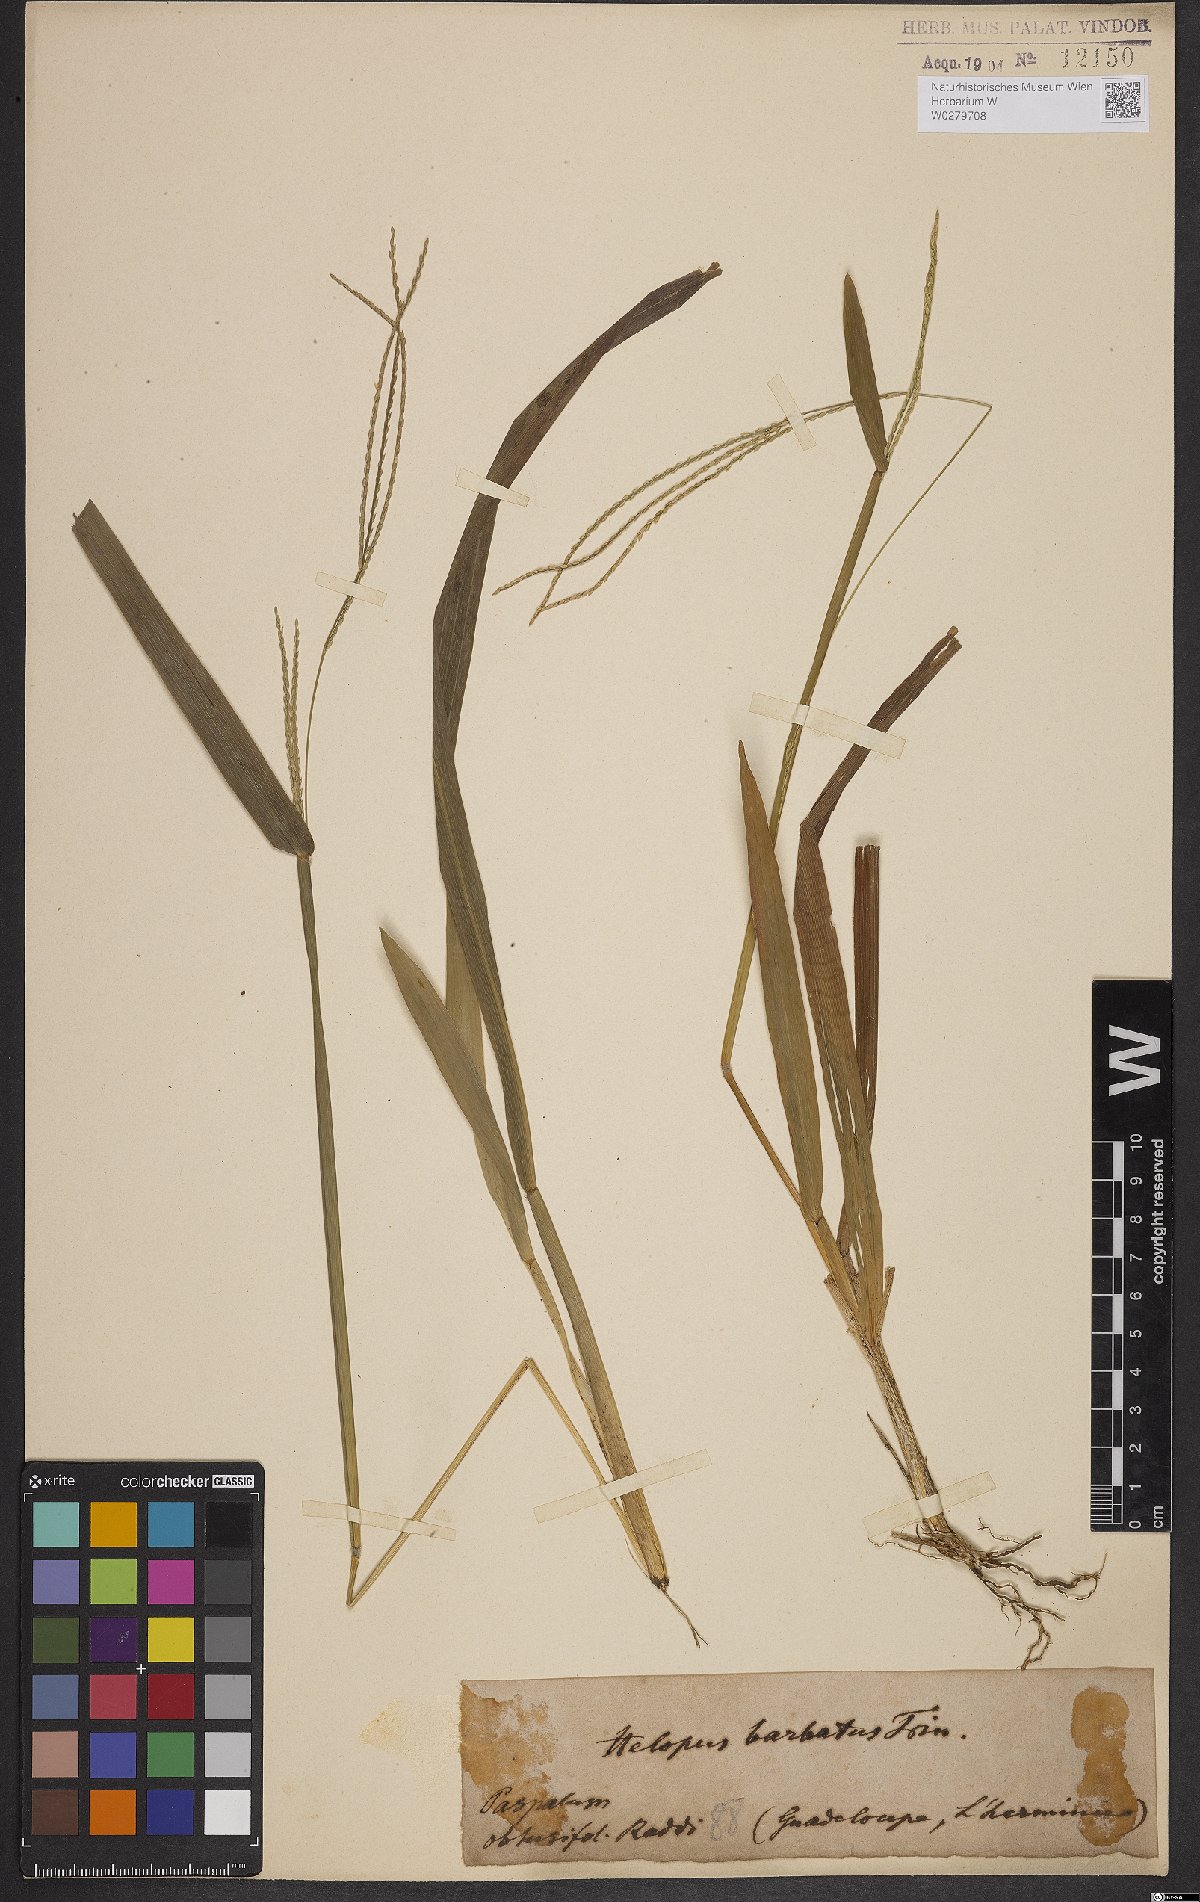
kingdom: Plantae
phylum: Tracheophyta
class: Liliopsida
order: Poales
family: Poaceae
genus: Axonopus
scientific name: Axonopus furcatus
